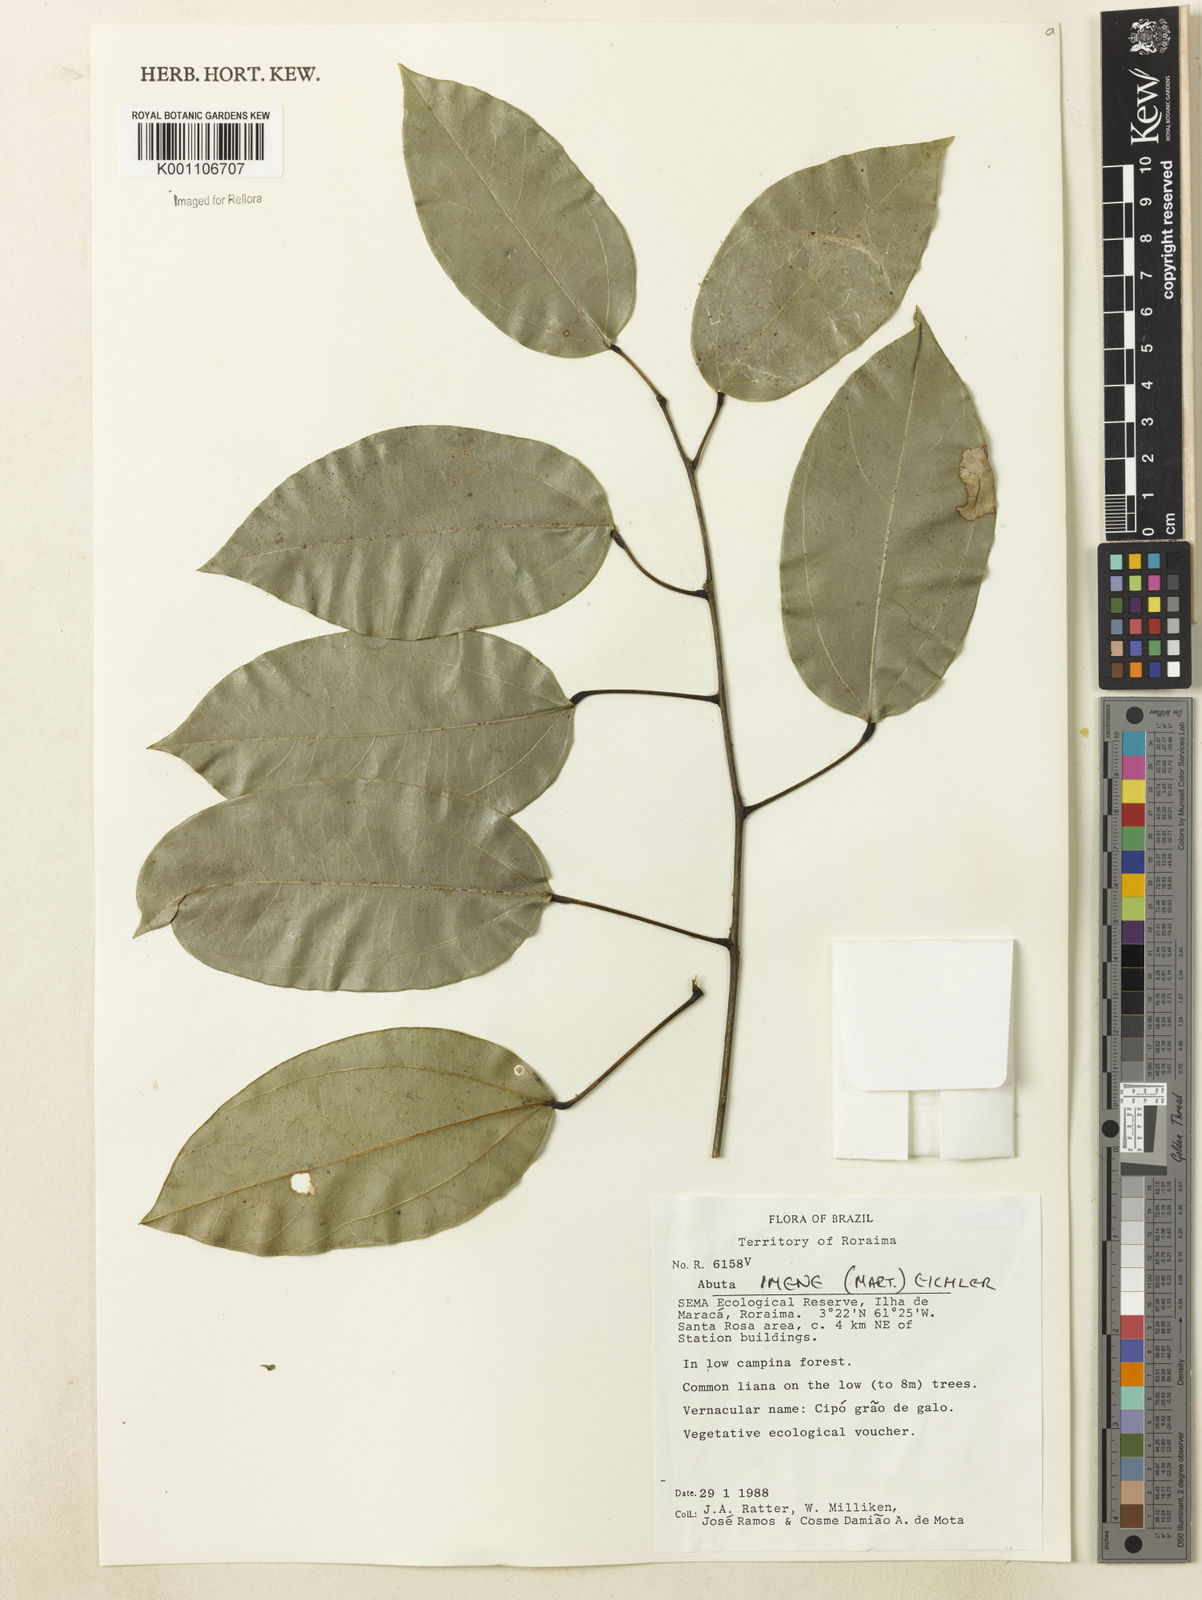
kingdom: Plantae
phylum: Tracheophyta
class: Magnoliopsida
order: Ranunculales
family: Menispermaceae
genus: Abuta
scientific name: Abuta imene
